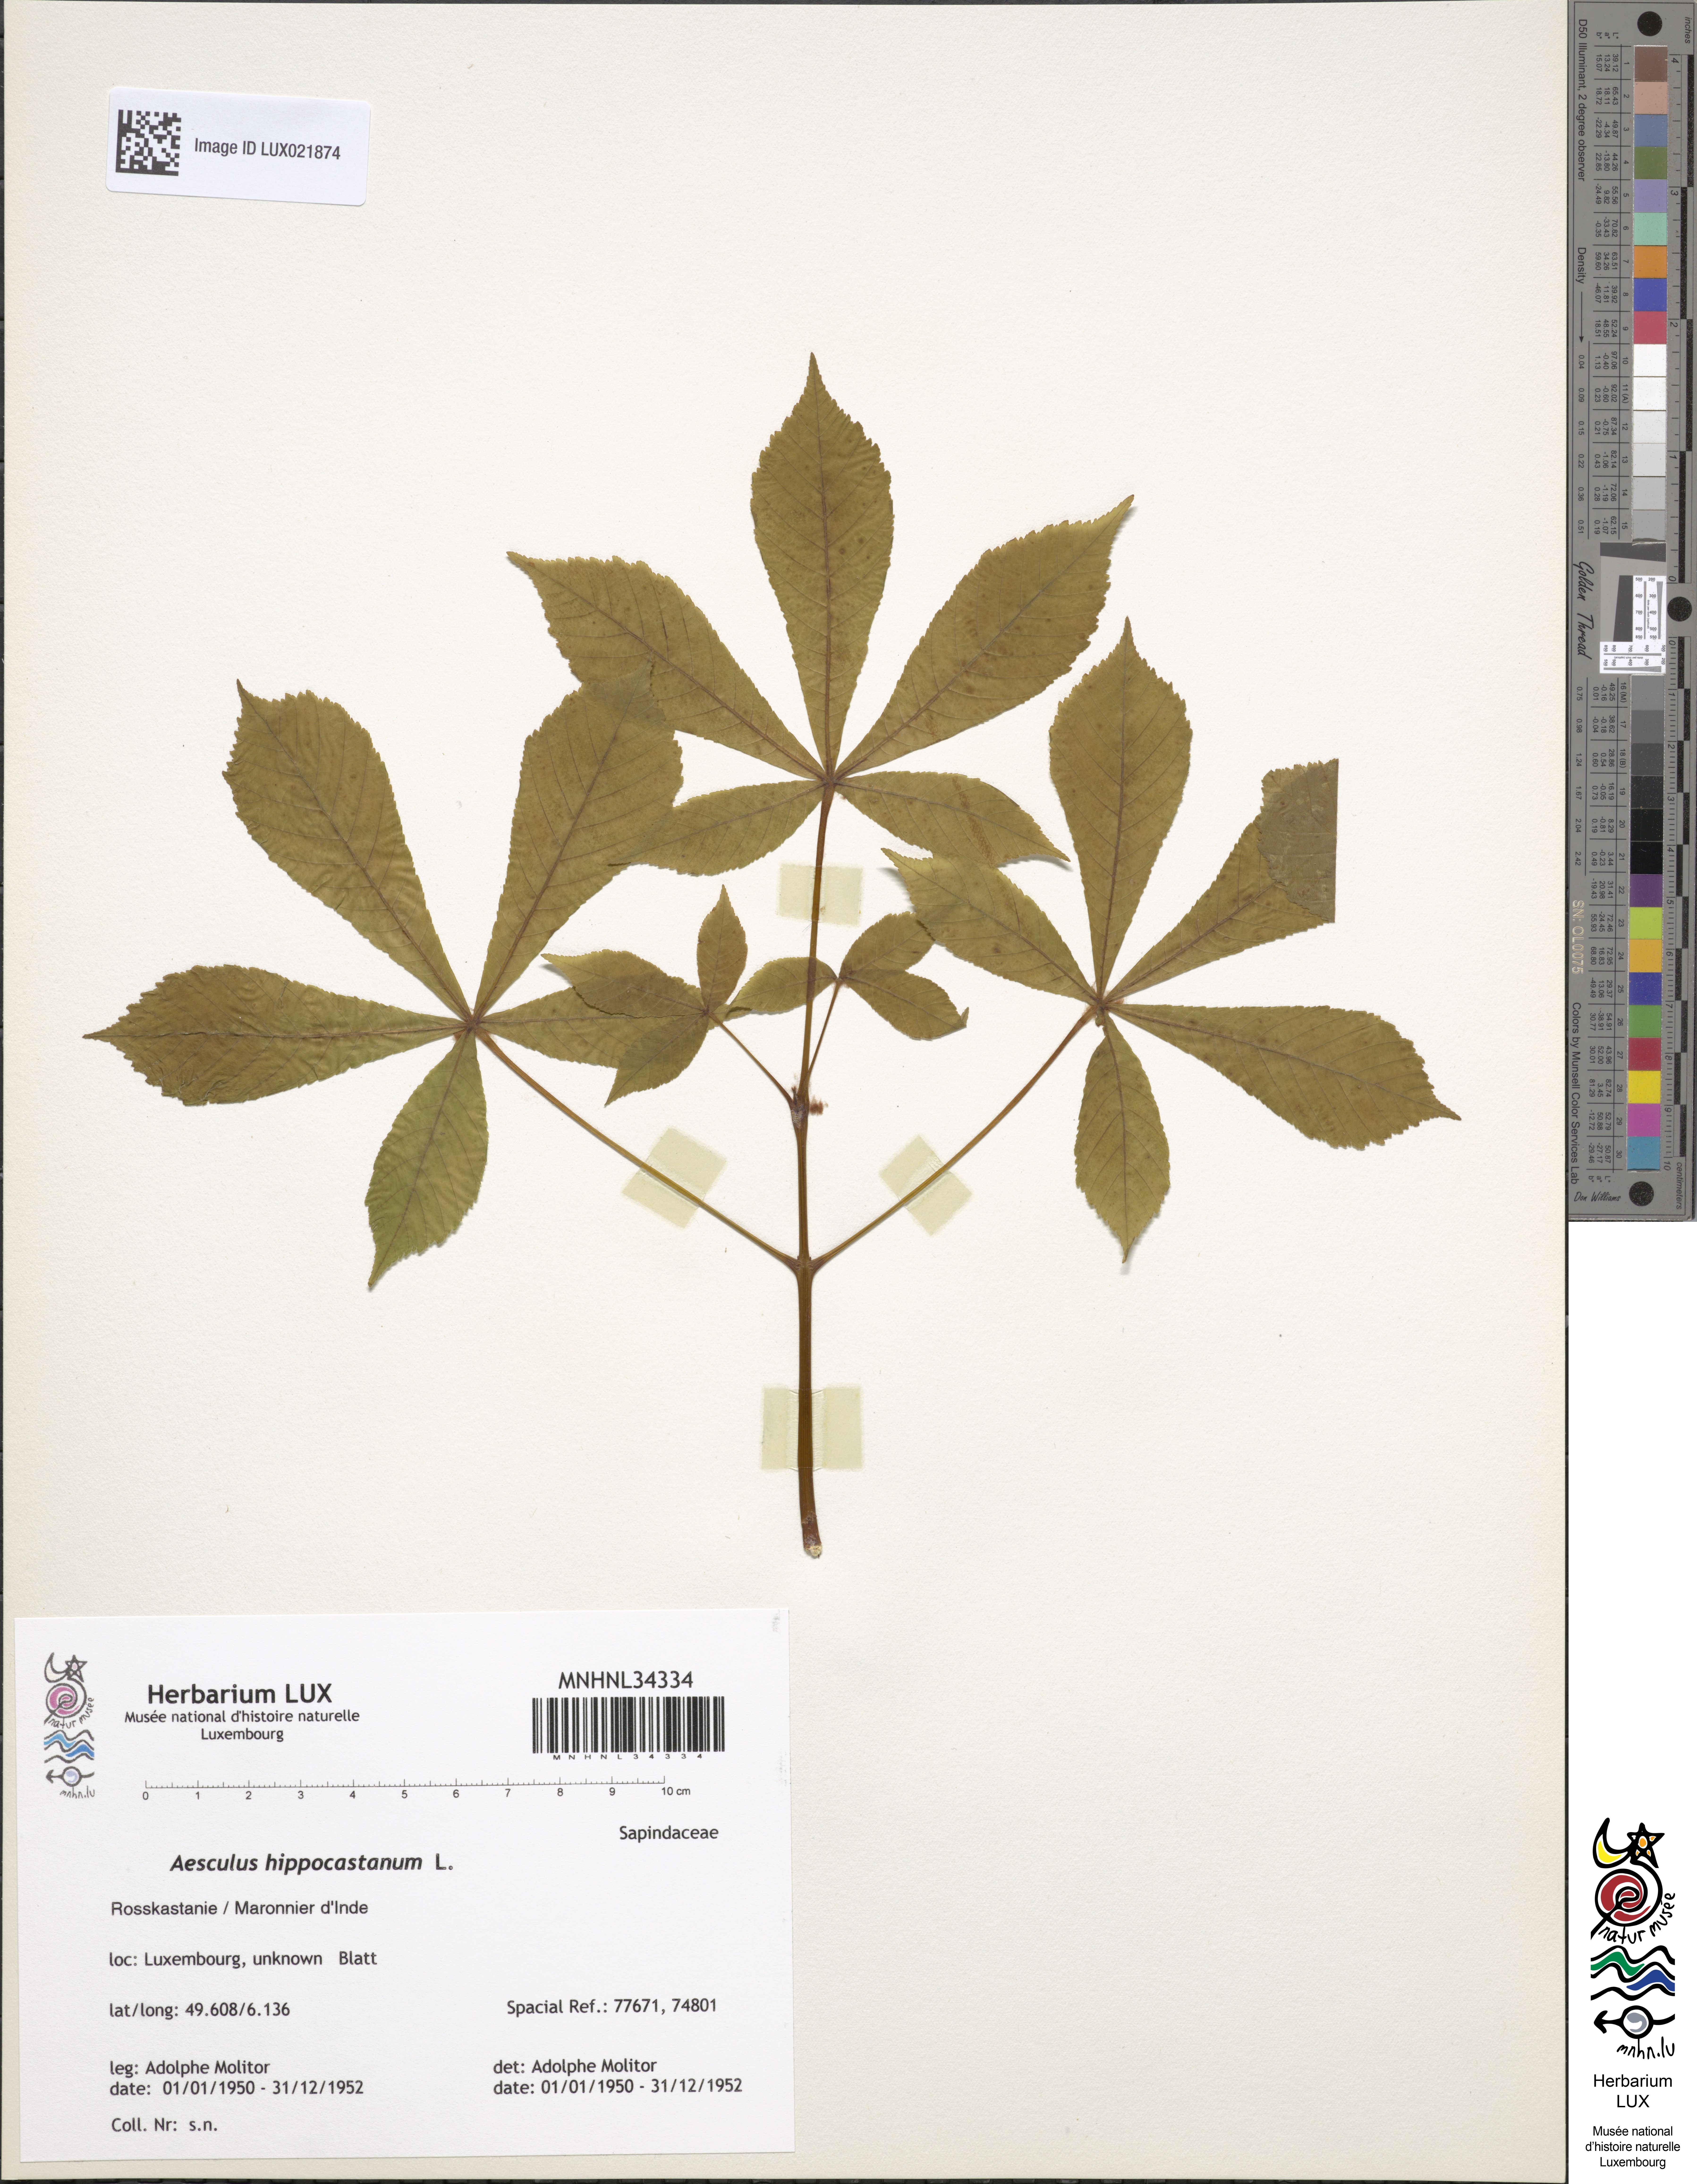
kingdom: Plantae
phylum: Tracheophyta
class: Magnoliopsida
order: Sapindales
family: Sapindaceae
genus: Aesculus
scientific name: Aesculus hippocastanum
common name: Horse-chestnut
